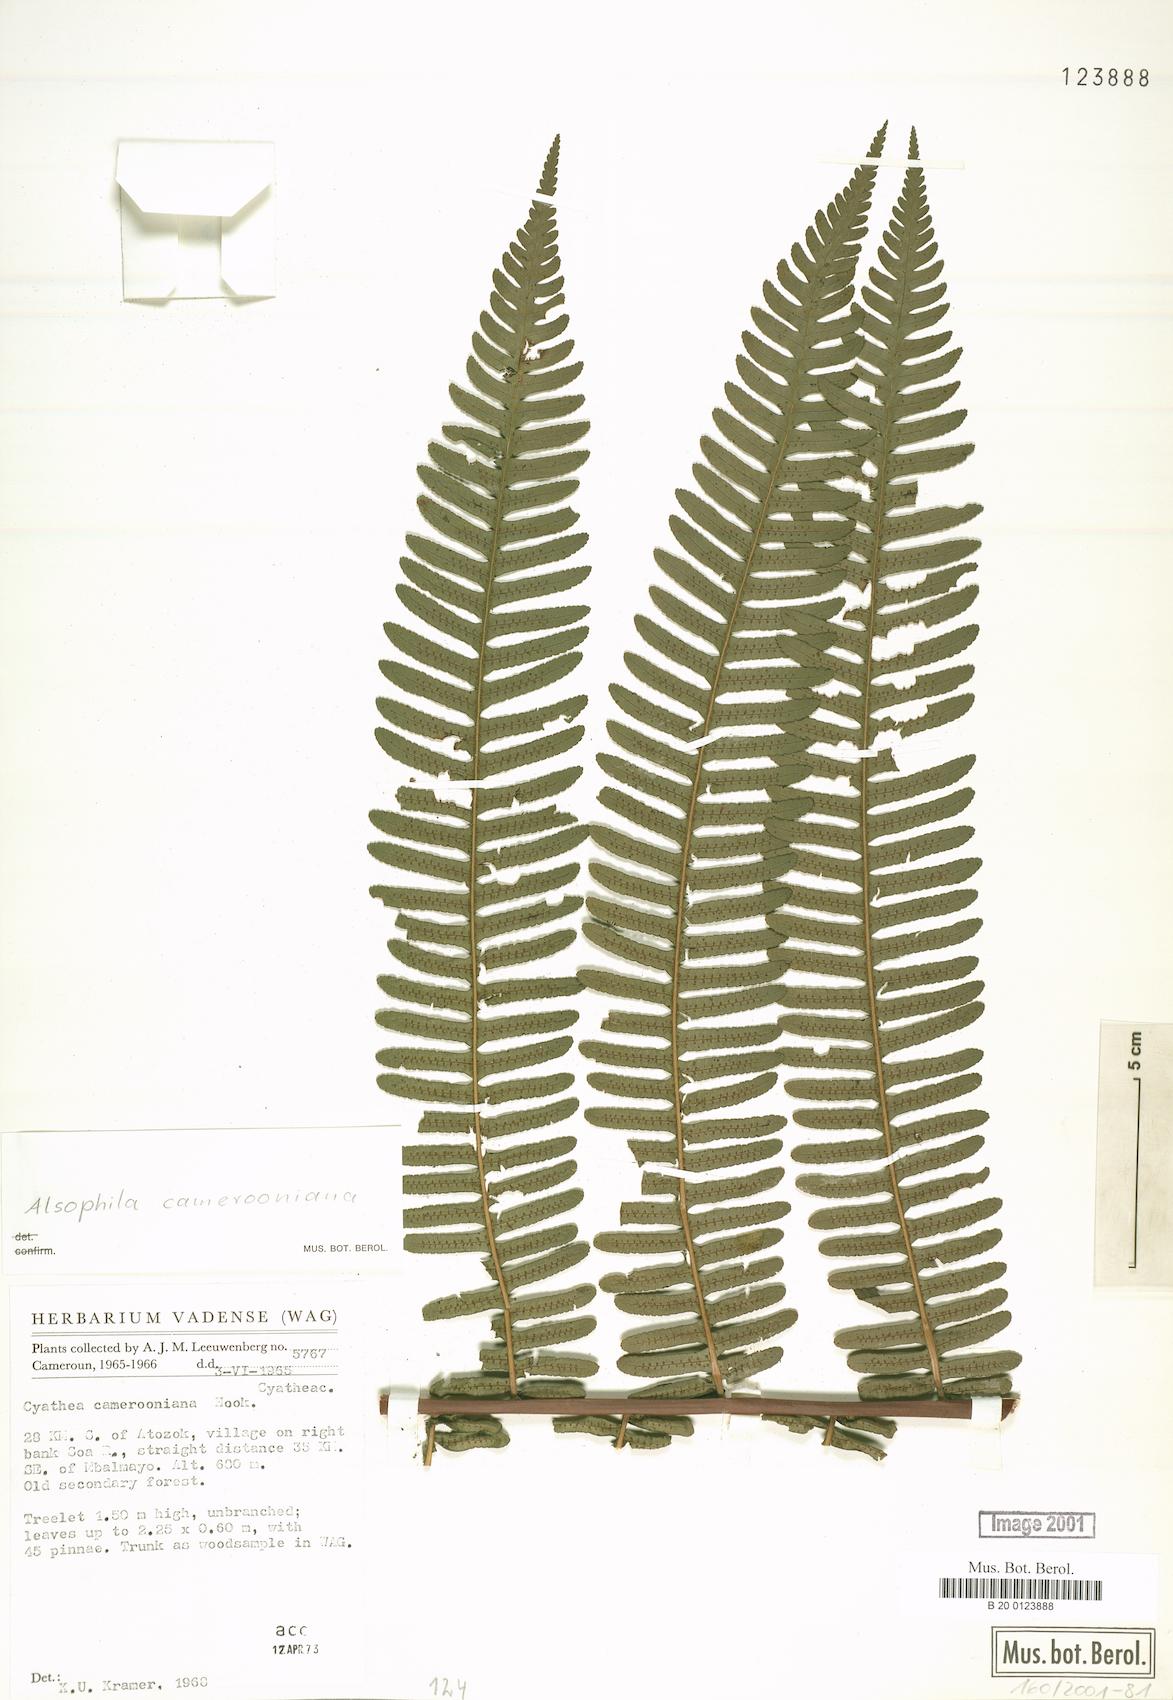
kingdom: Plantae
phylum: Tracheophyta
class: Polypodiopsida
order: Cyatheales
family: Cyatheaceae
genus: Alsophila
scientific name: Alsophila camerooniana
